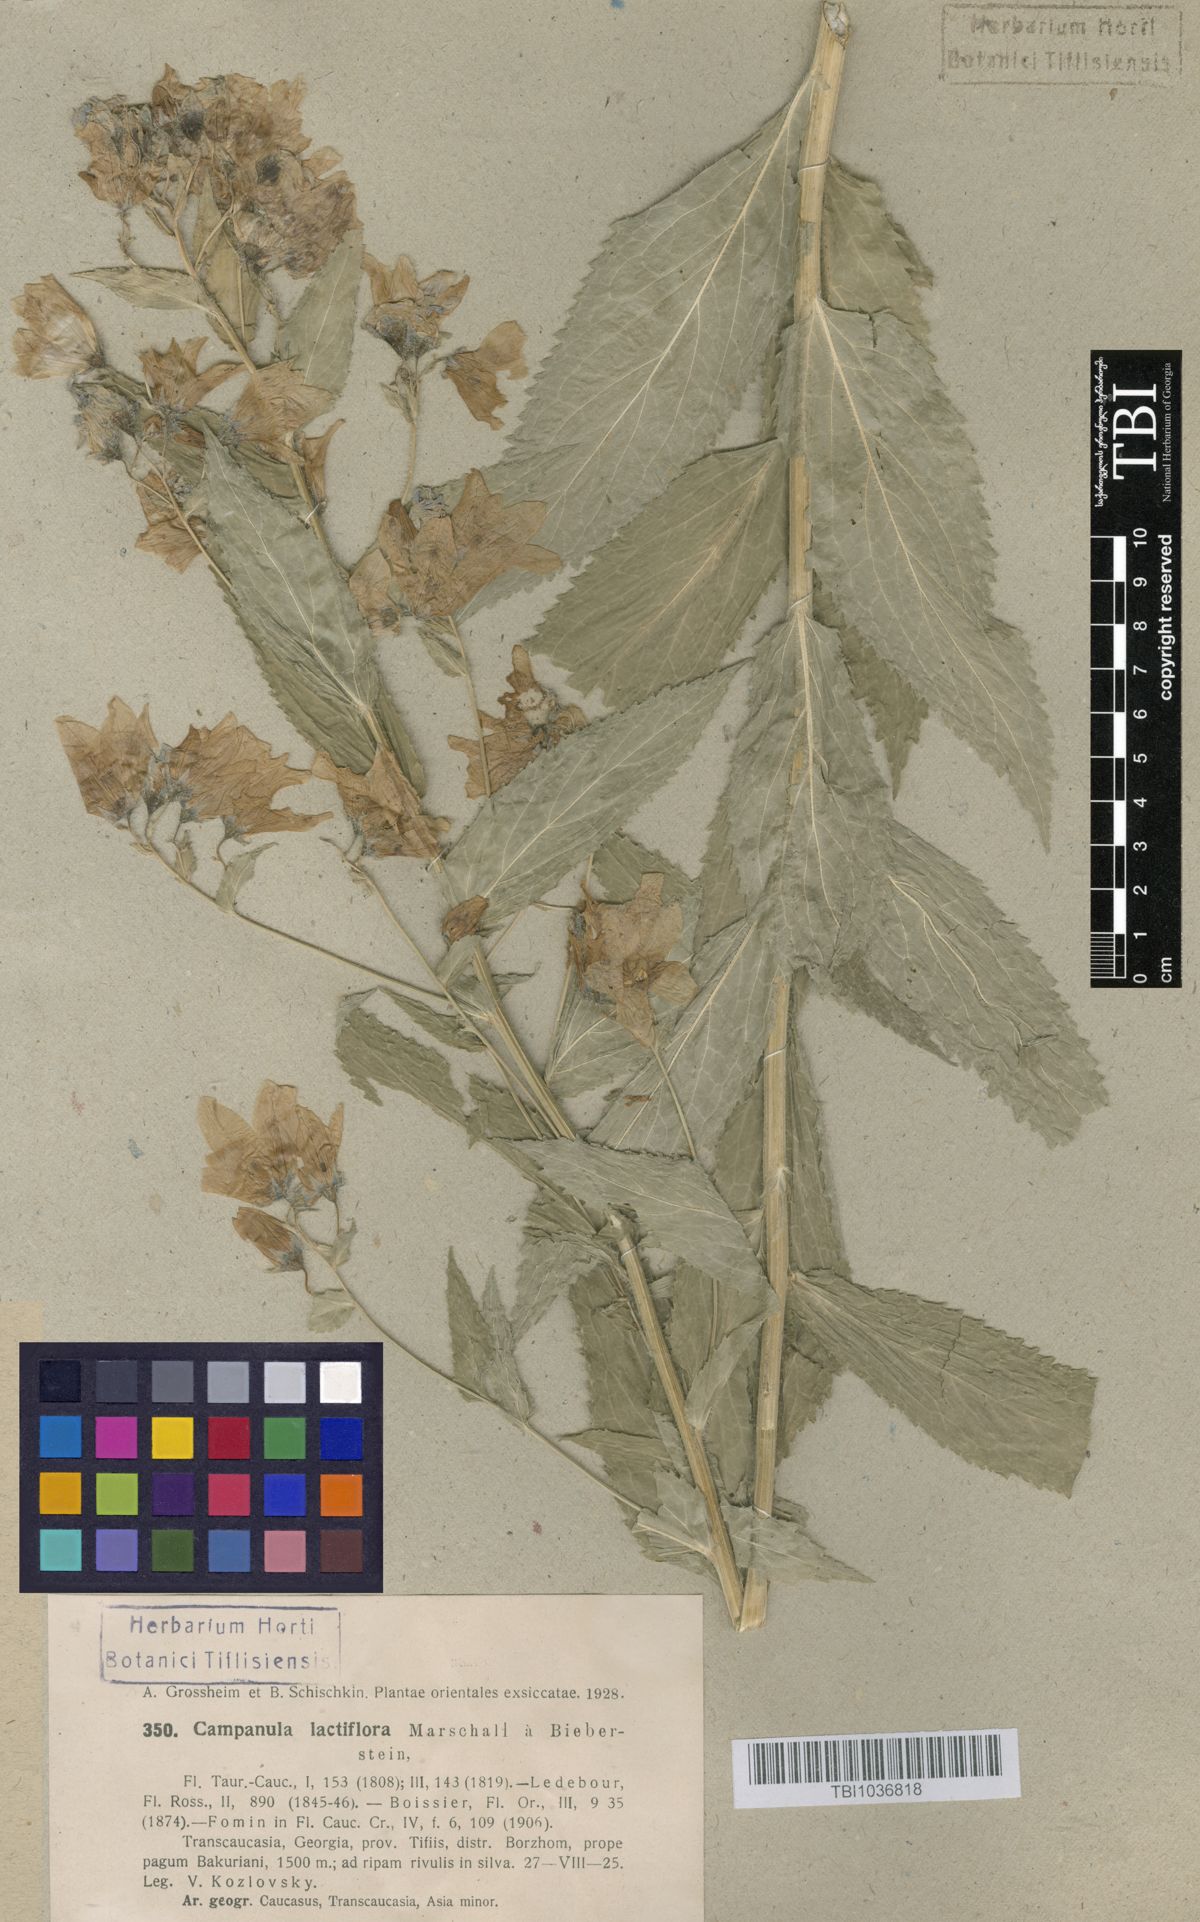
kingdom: Plantae
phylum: Tracheophyta
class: Magnoliopsida
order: Asterales
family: Campanulaceae
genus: Campanula
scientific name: Campanula lactiflora
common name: Milky bellflower
